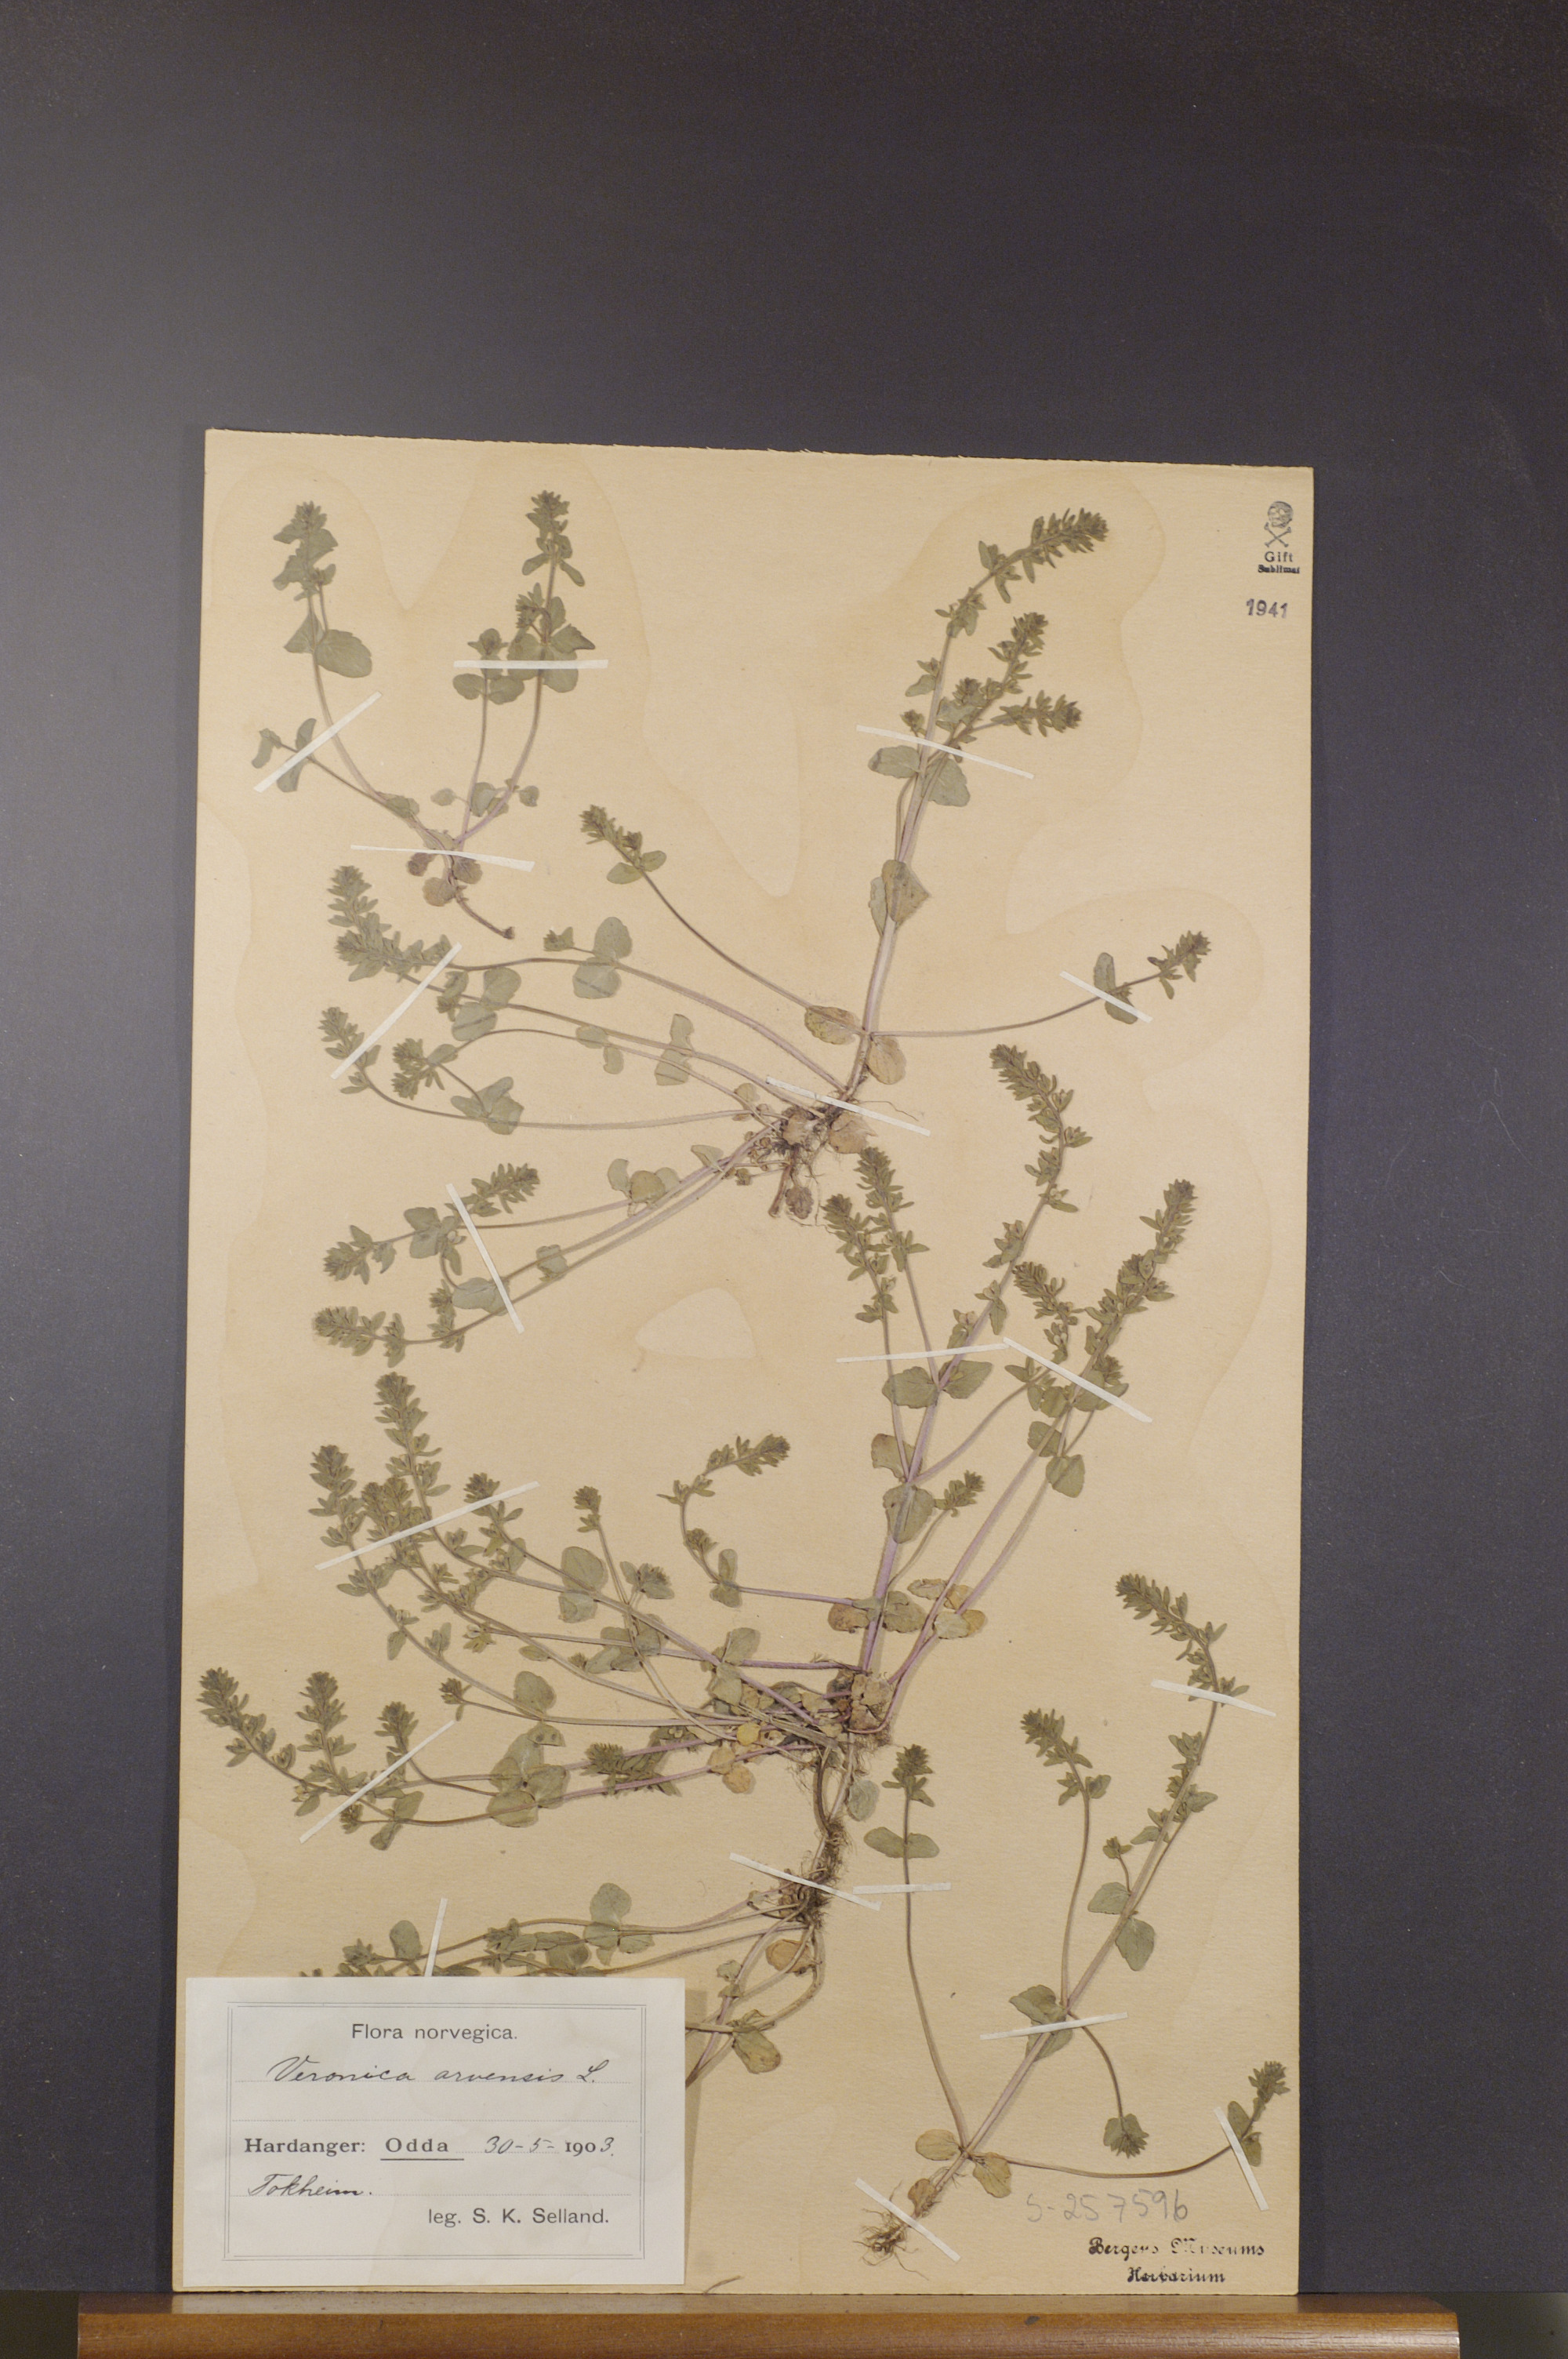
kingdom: Plantae
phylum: Tracheophyta
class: Magnoliopsida
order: Lamiales
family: Plantaginaceae
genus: Veronica
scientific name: Veronica arvensis
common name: Corn speedwell
